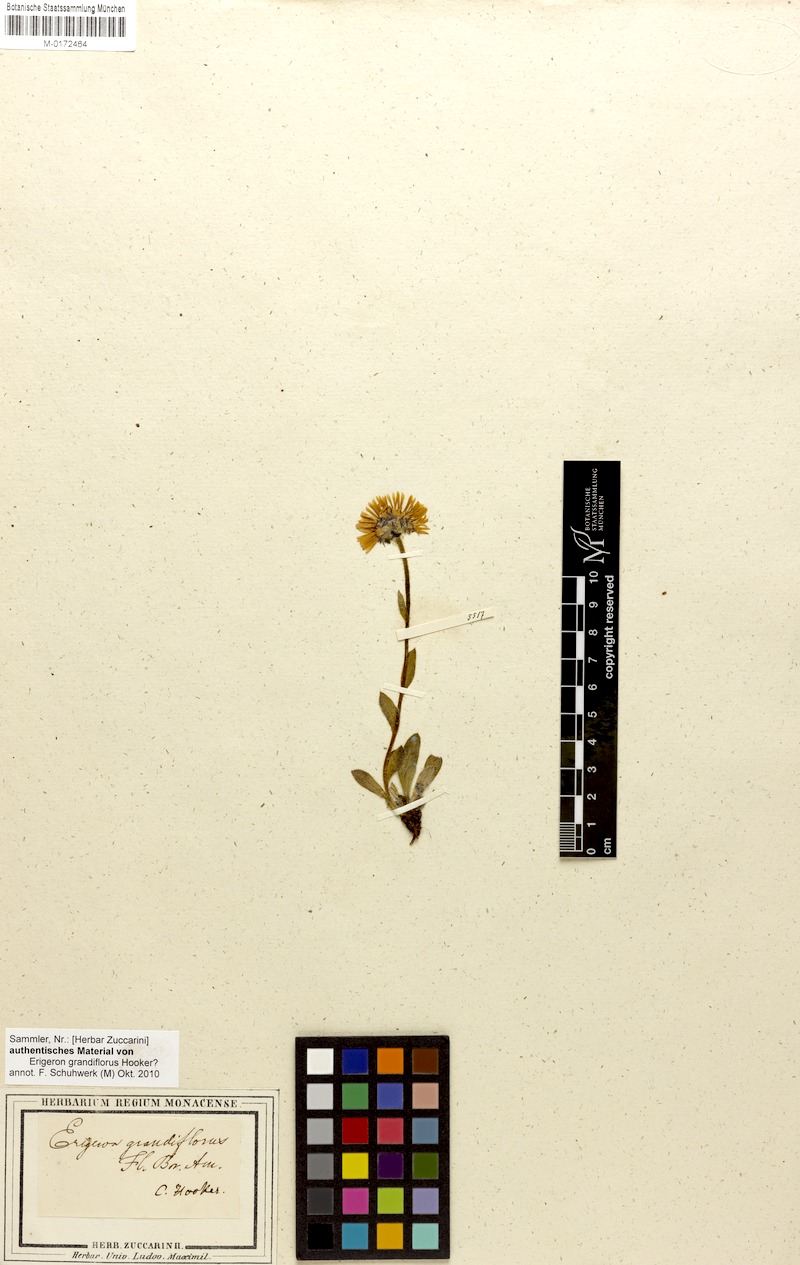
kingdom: Plantae
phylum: Tracheophyta
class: Magnoliopsida
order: Asterales
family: Asteraceae
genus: Erigeron
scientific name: Erigeron grandiflorus
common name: Rocky mountain alpine fleabane
